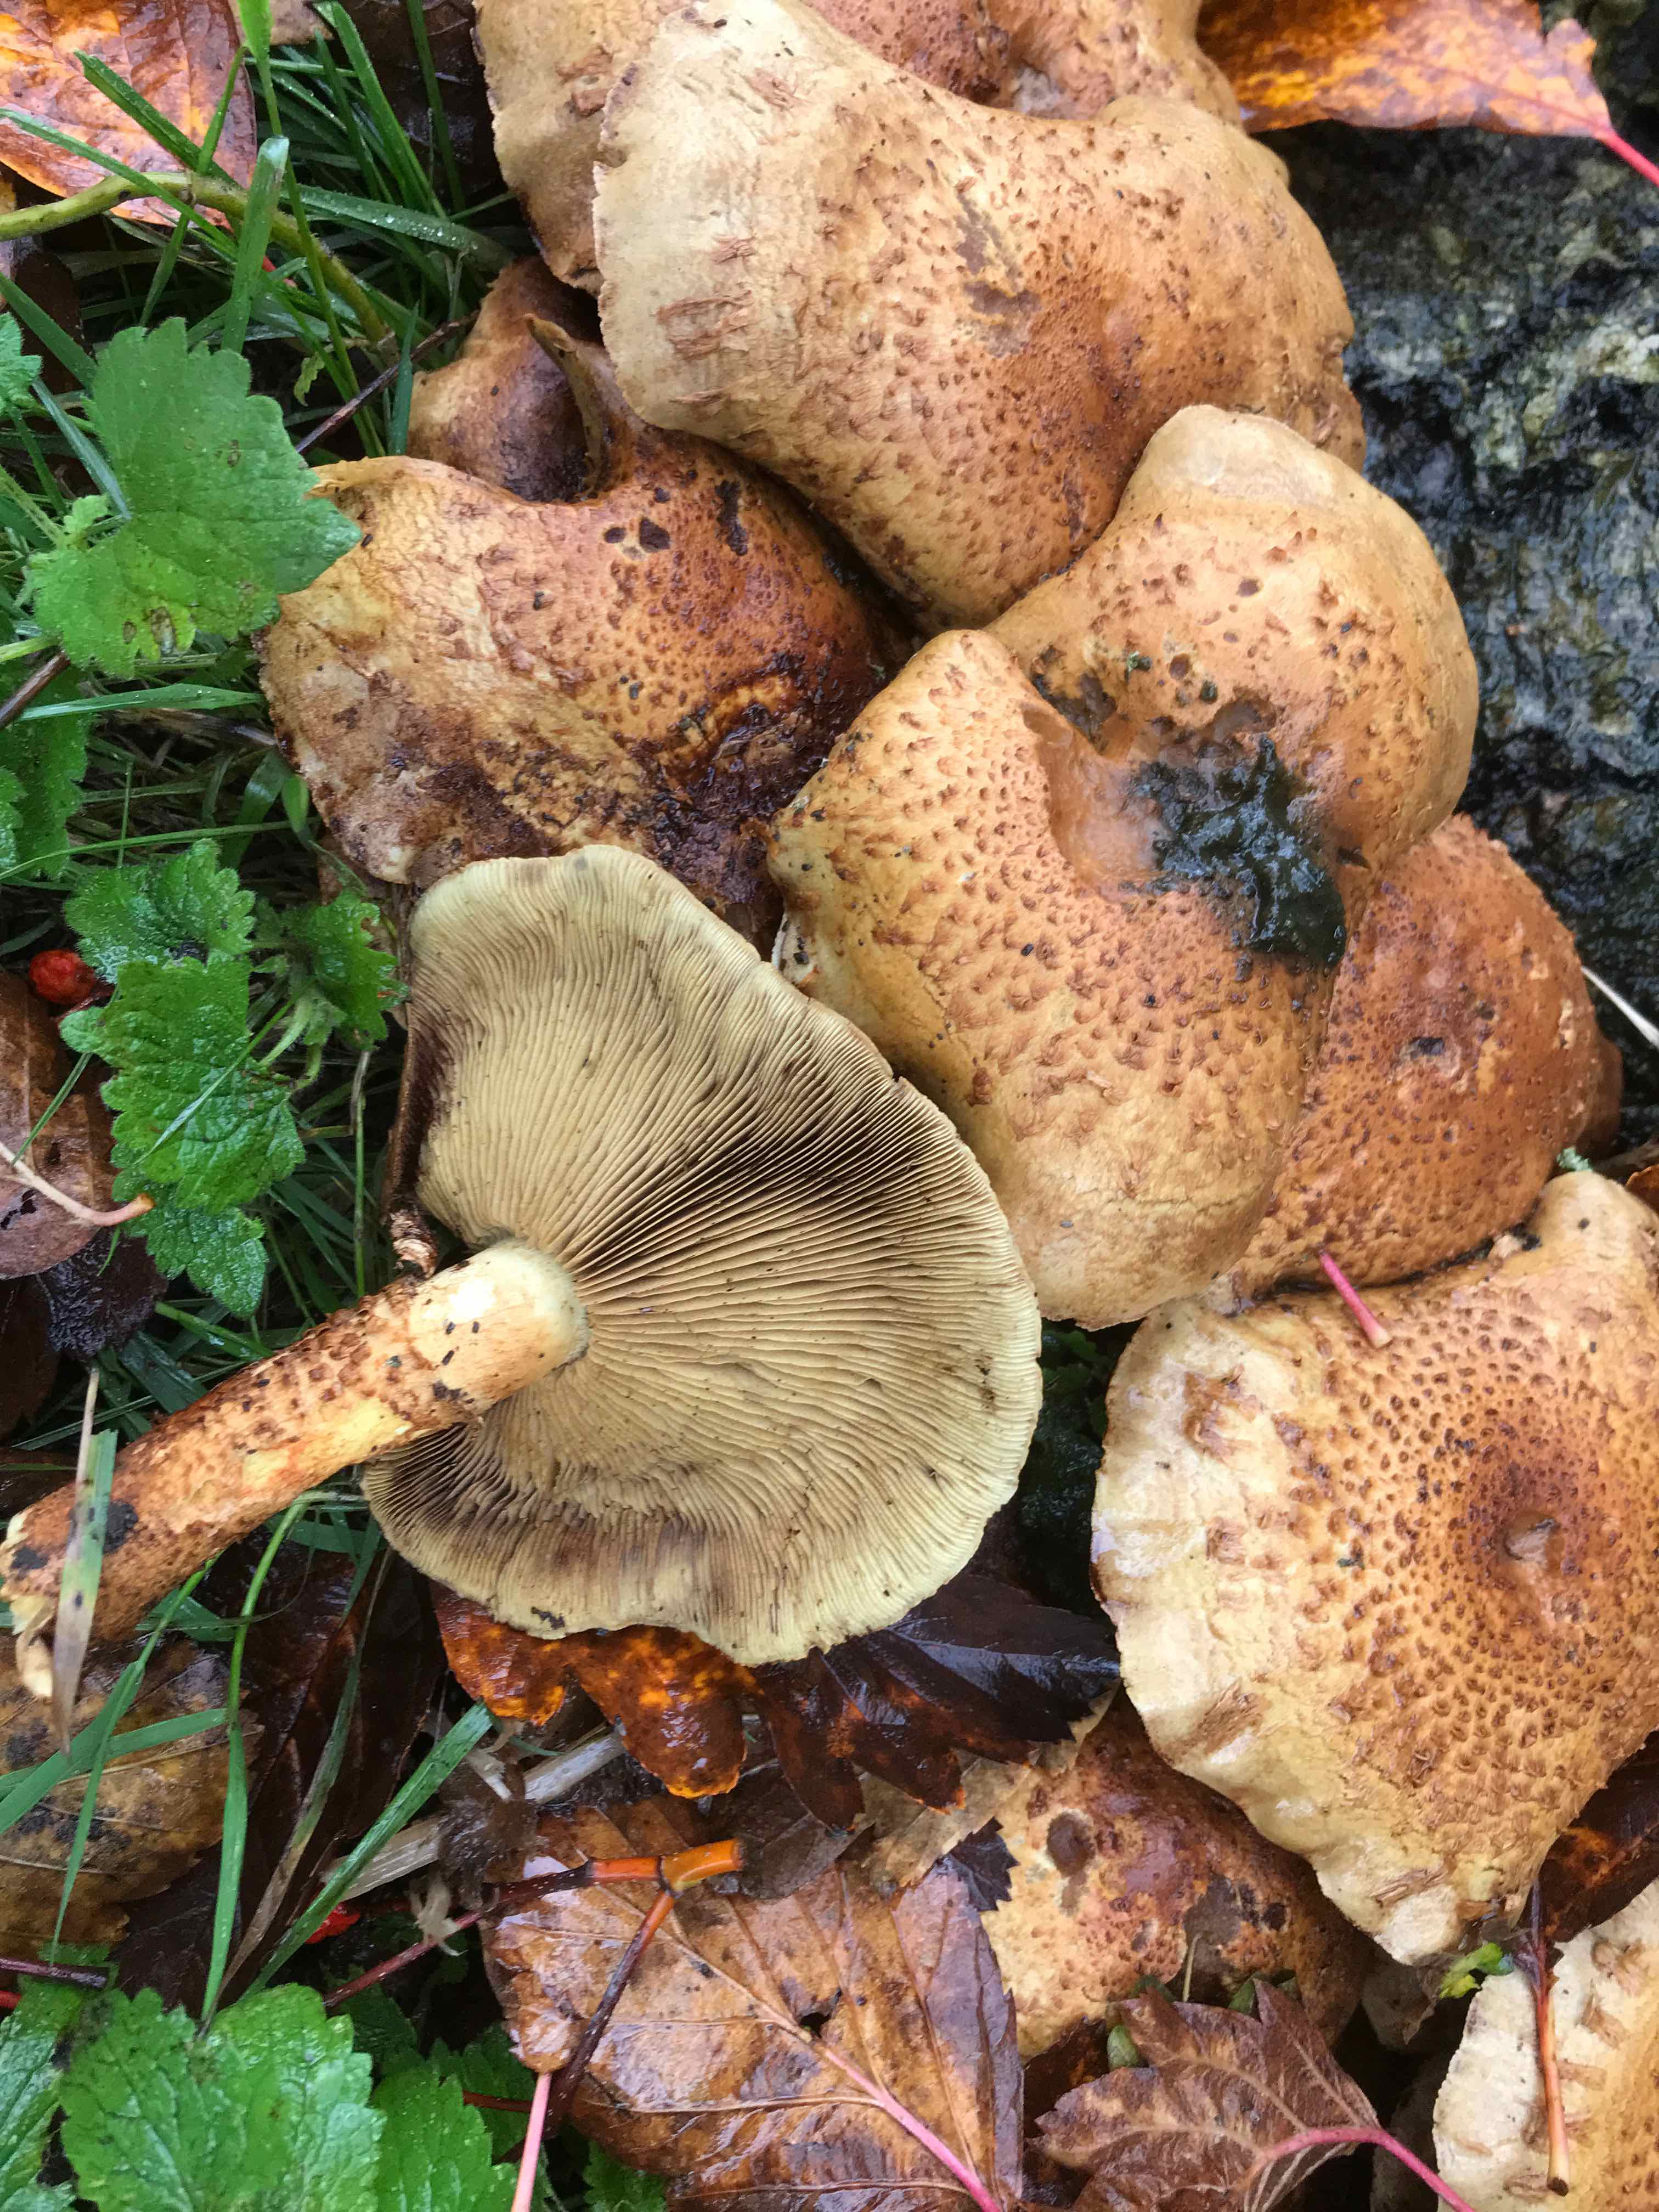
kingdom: Fungi
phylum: Basidiomycota
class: Agaricomycetes
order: Agaricales
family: Strophariaceae
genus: Pholiota
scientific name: Pholiota squarrosa
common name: krumskællet skælhat
